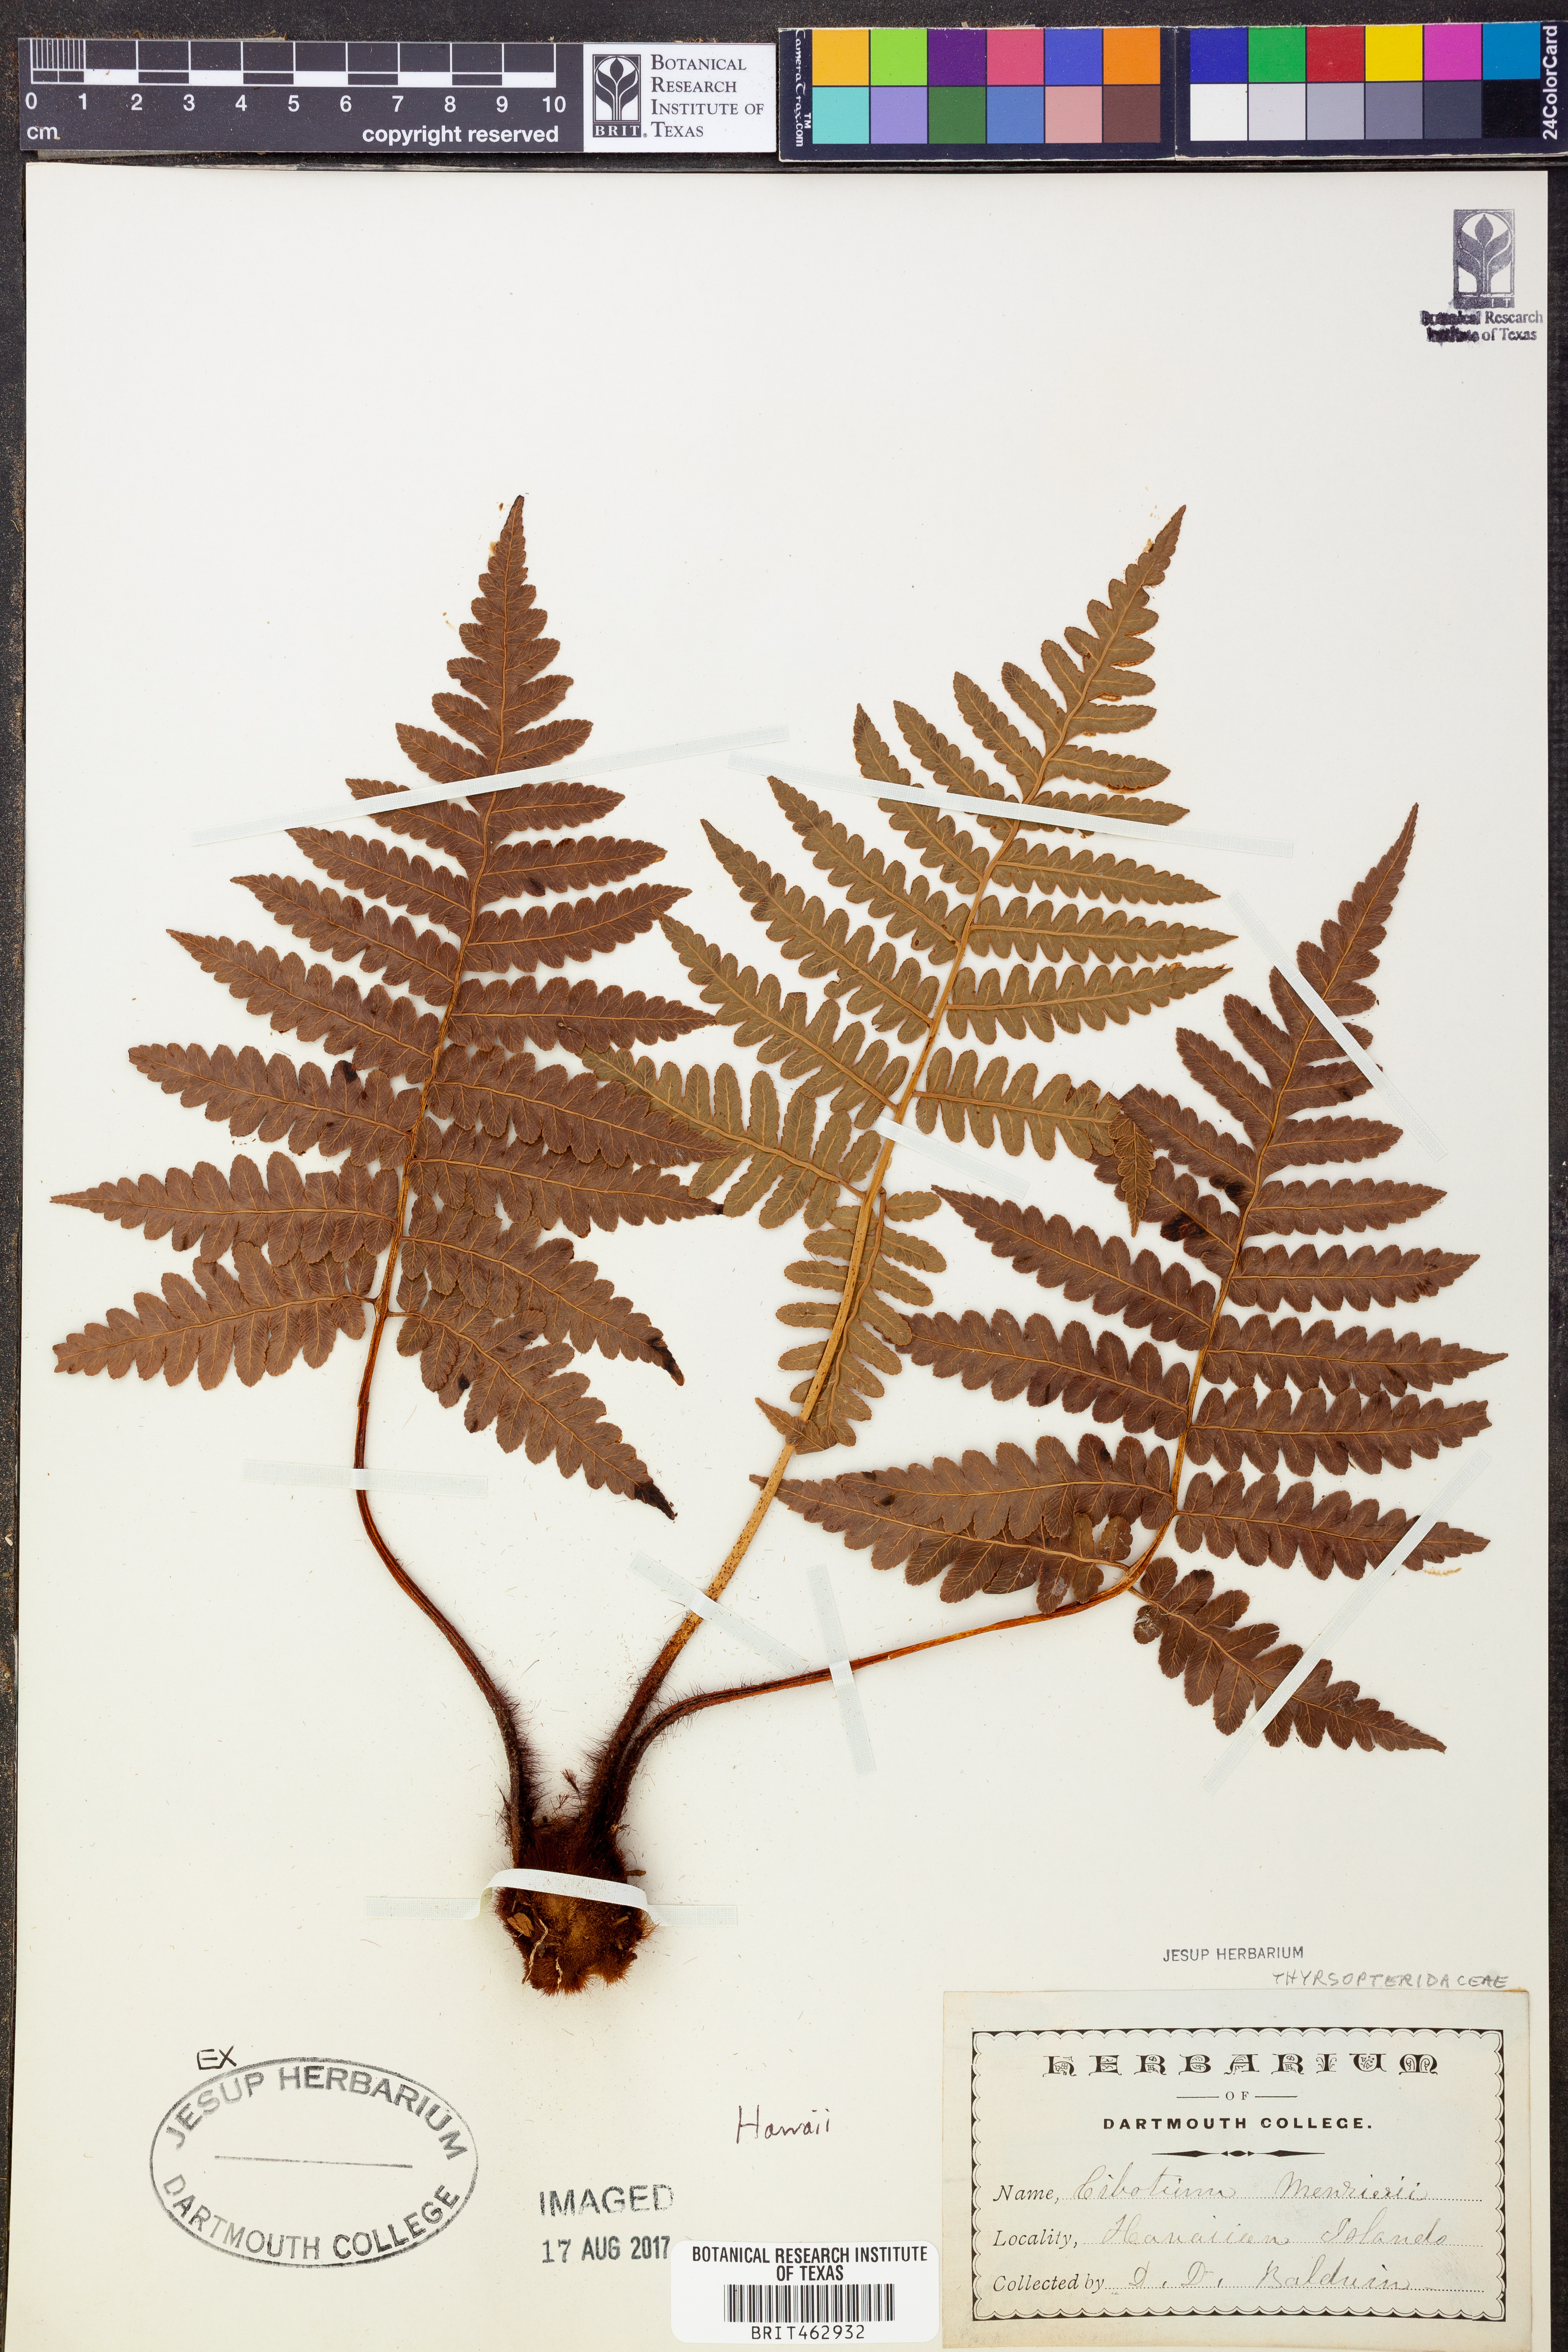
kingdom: Plantae
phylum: Tracheophyta
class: Polypodiopsida
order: Cyatheales
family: Cibotiaceae
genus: Cibotium
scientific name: Cibotium menziesii
